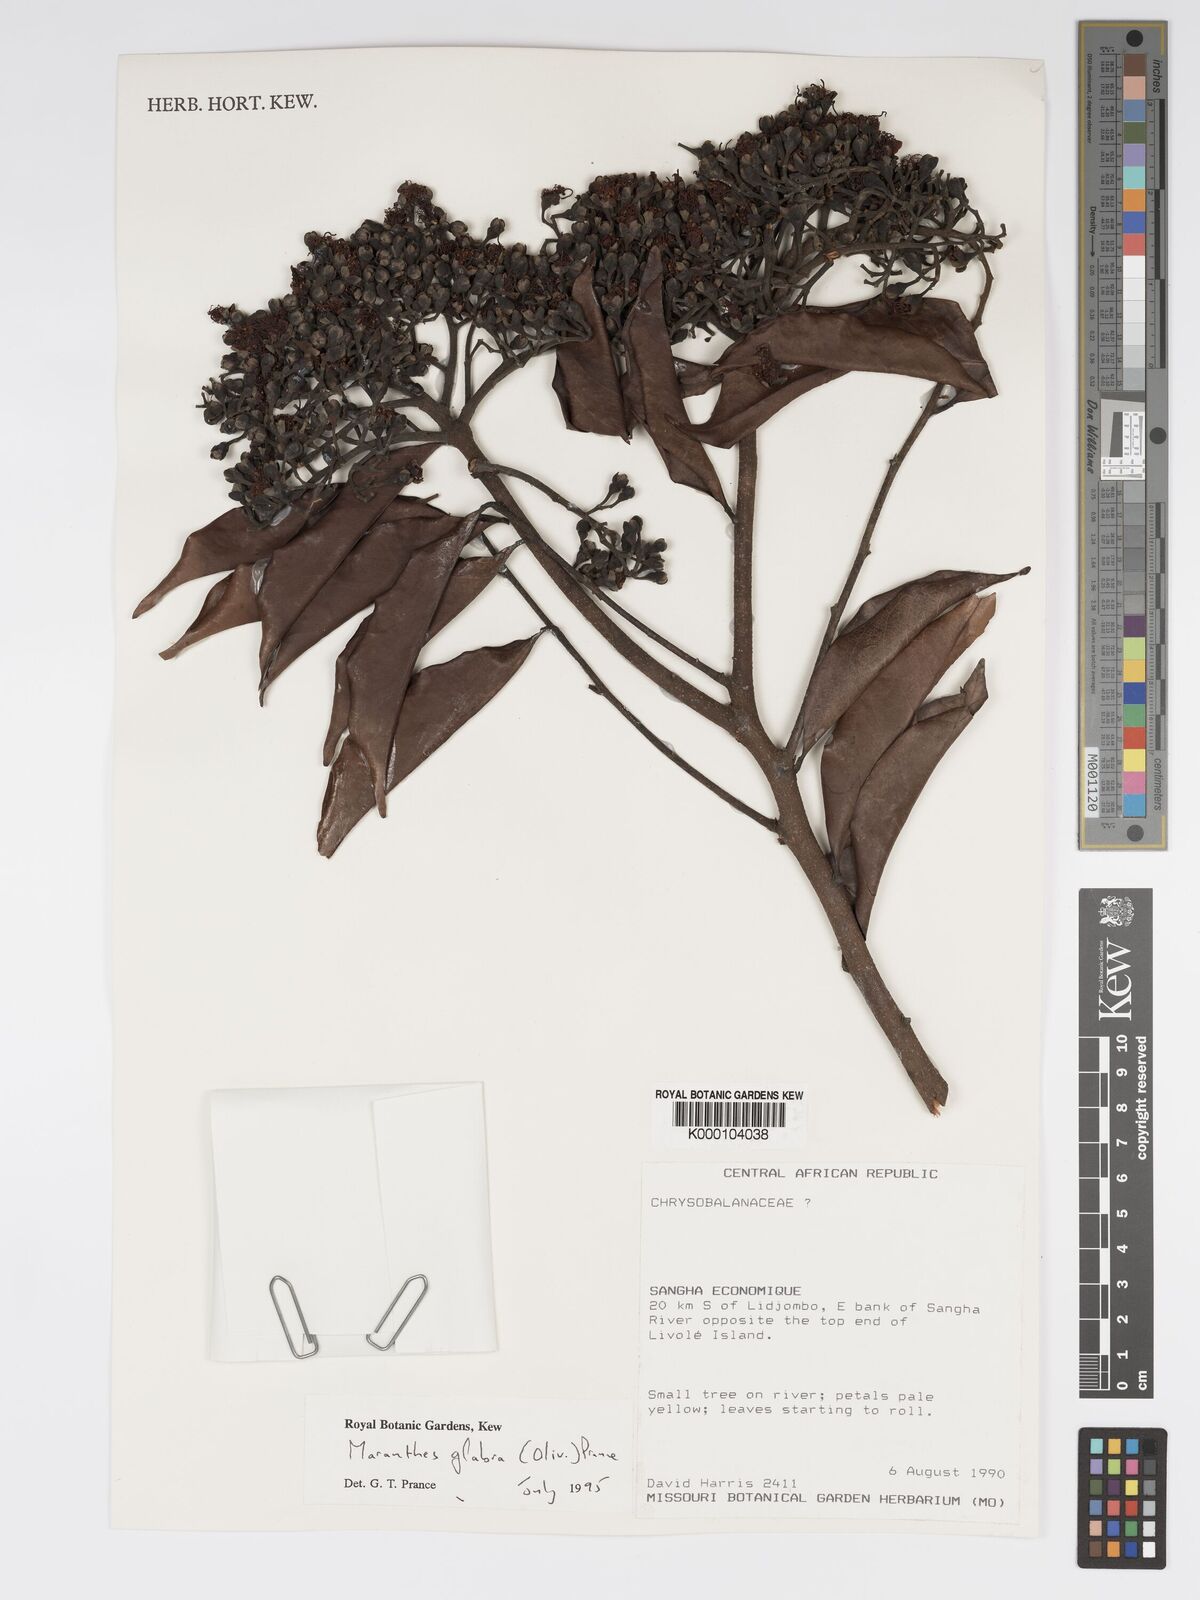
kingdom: Plantae
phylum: Tracheophyta
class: Magnoliopsida
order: Malpighiales
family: Chrysobalanaceae
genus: Maranthes
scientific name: Maranthes glabra
